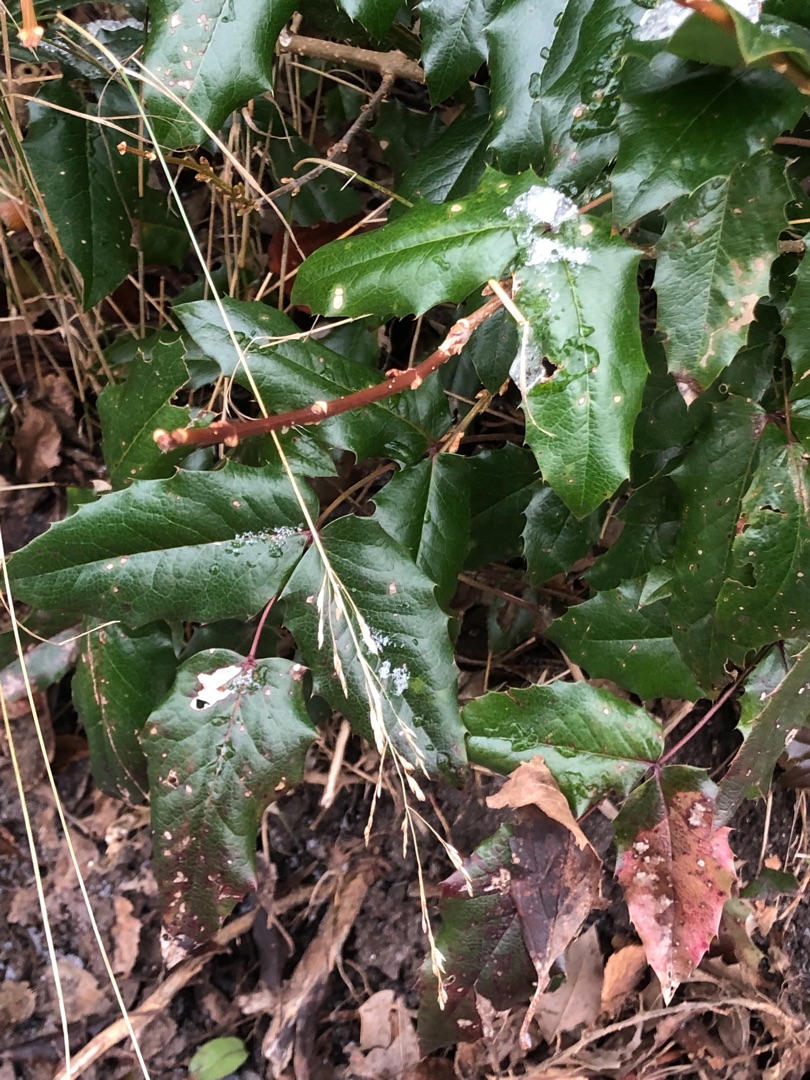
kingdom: Plantae
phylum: Tracheophyta
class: Magnoliopsida
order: Ranunculales
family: Berberidaceae
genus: Mahonia
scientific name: Mahonia aquifolium
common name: Almindelig mahonie
